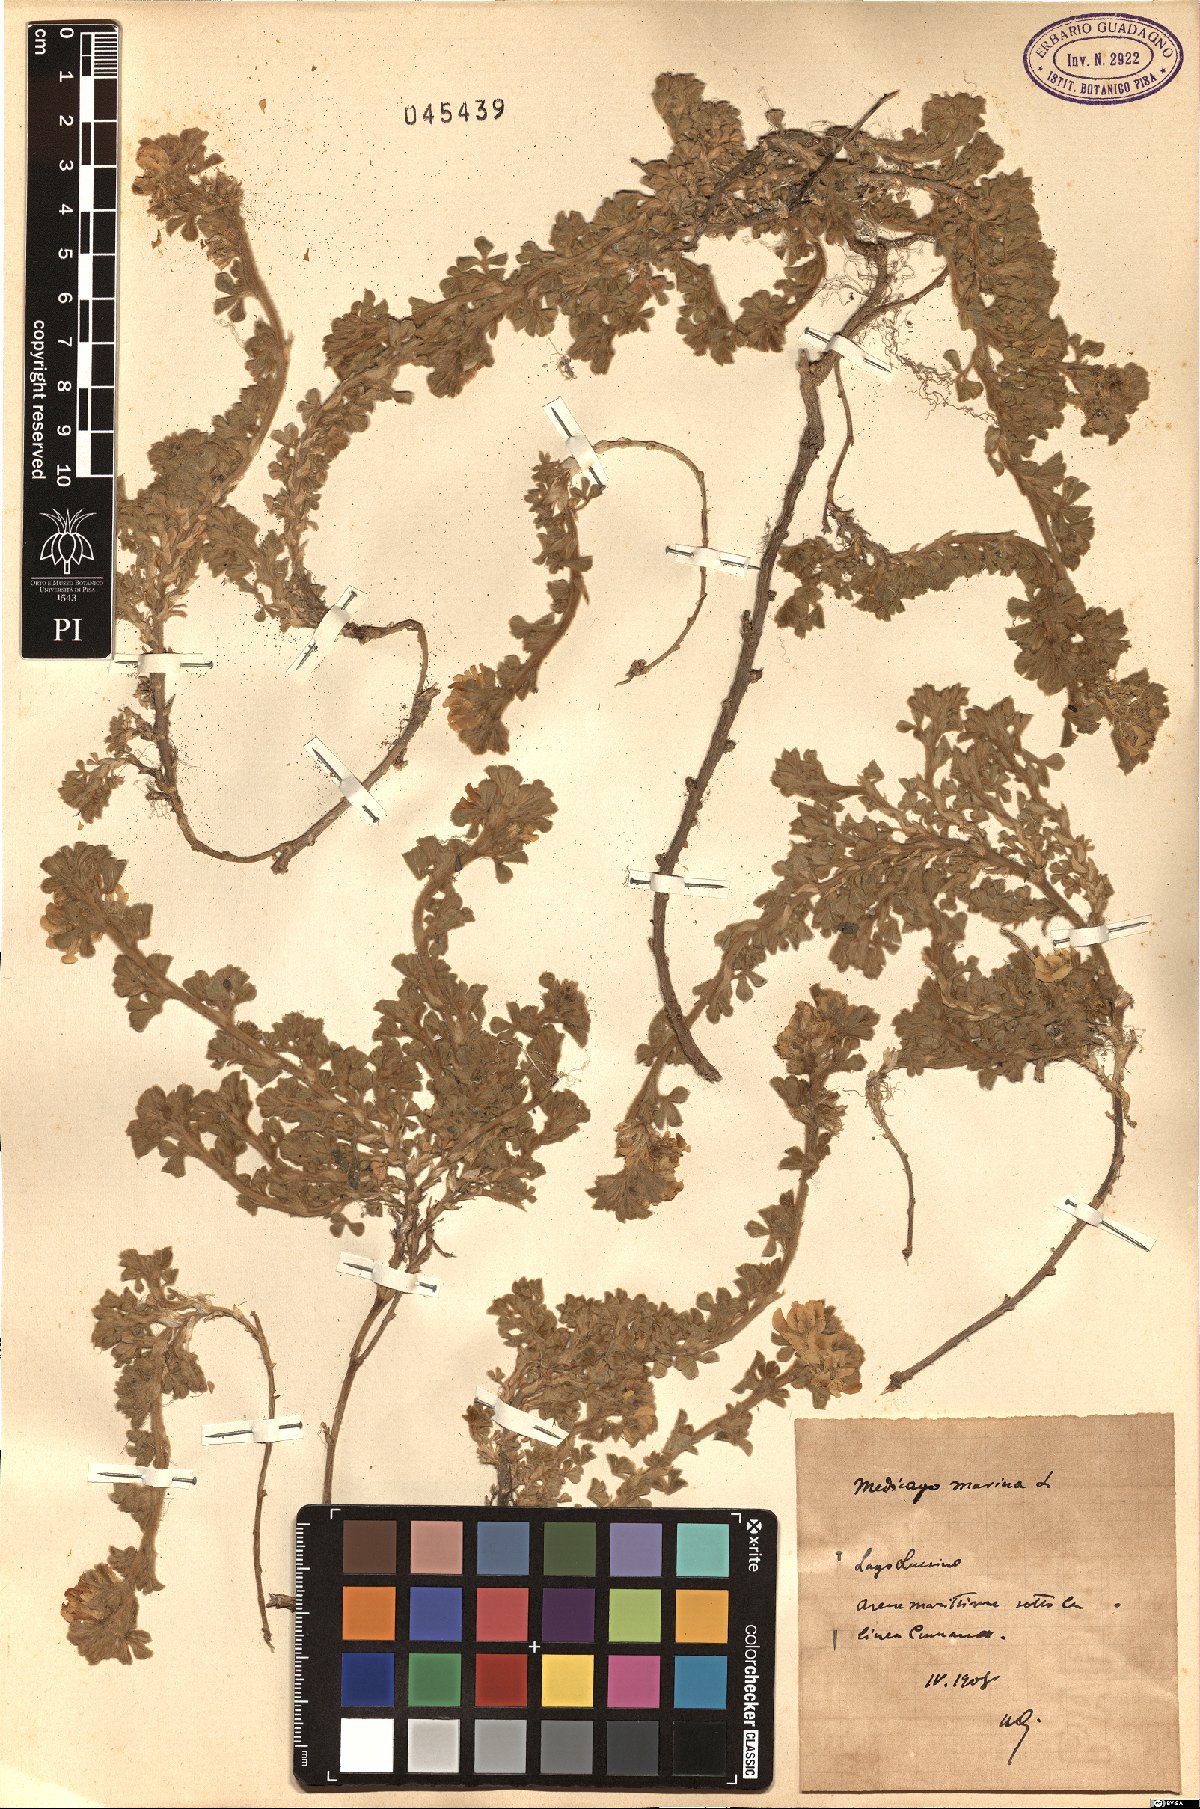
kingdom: Plantae
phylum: Tracheophyta
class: Magnoliopsida
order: Fabales
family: Fabaceae
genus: Medicago
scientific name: Medicago marina
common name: Sea medick
